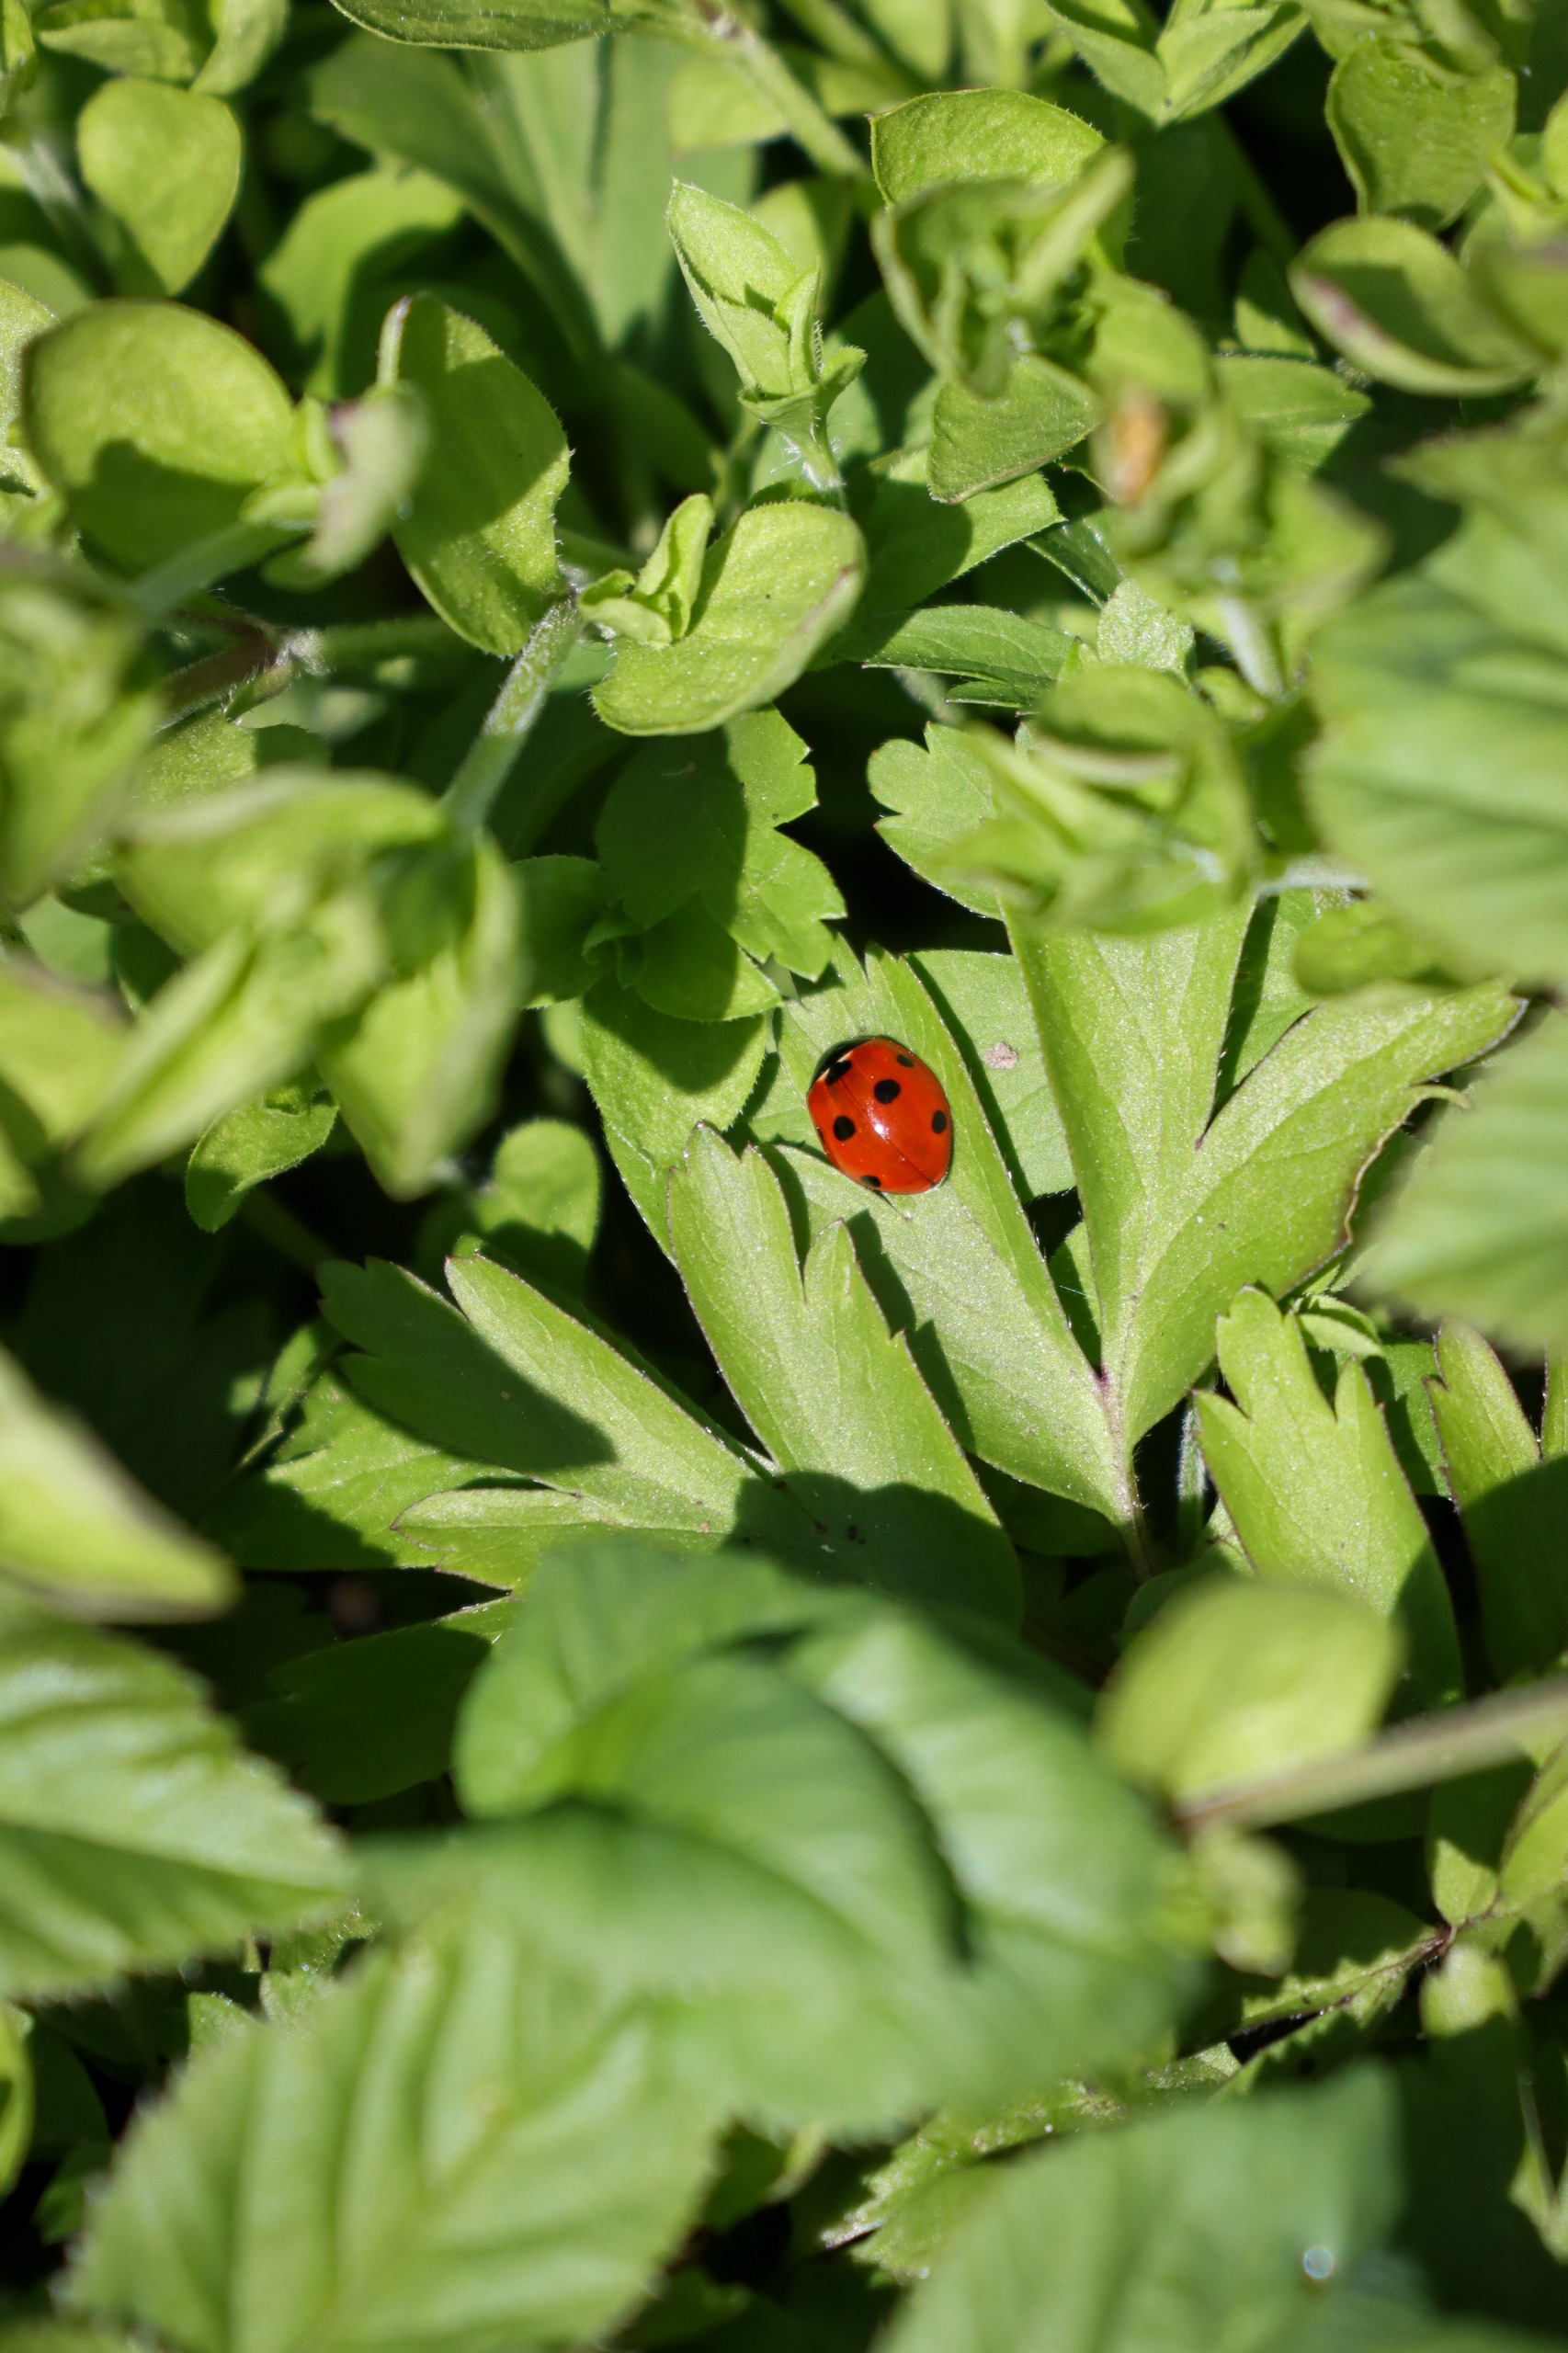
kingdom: Animalia
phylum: Arthropoda
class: Insecta
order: Coleoptera
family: Coccinellidae
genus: Coccinella
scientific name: Coccinella septempunctata
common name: Syvplettet mariehøne
